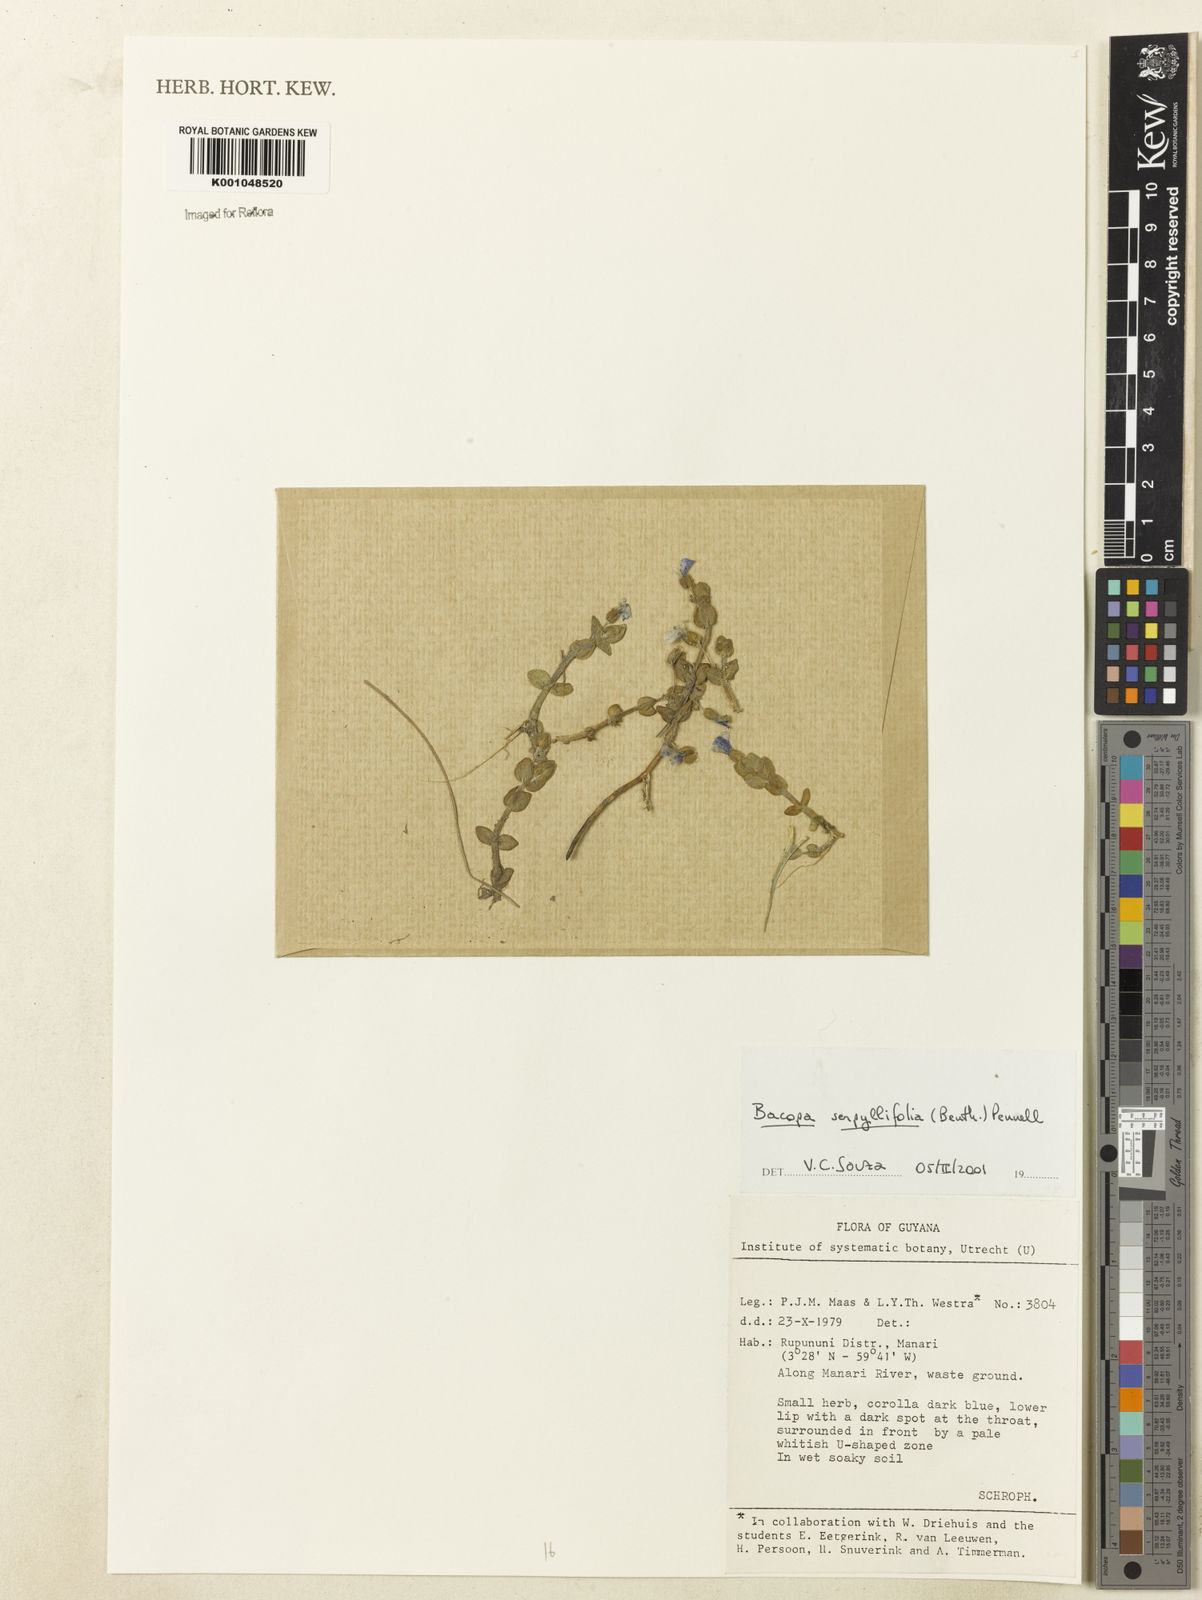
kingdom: Plantae
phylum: Tracheophyta
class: Magnoliopsida
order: Lamiales
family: Plantaginaceae
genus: Bacopa
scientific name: Bacopa serpyllifolia
